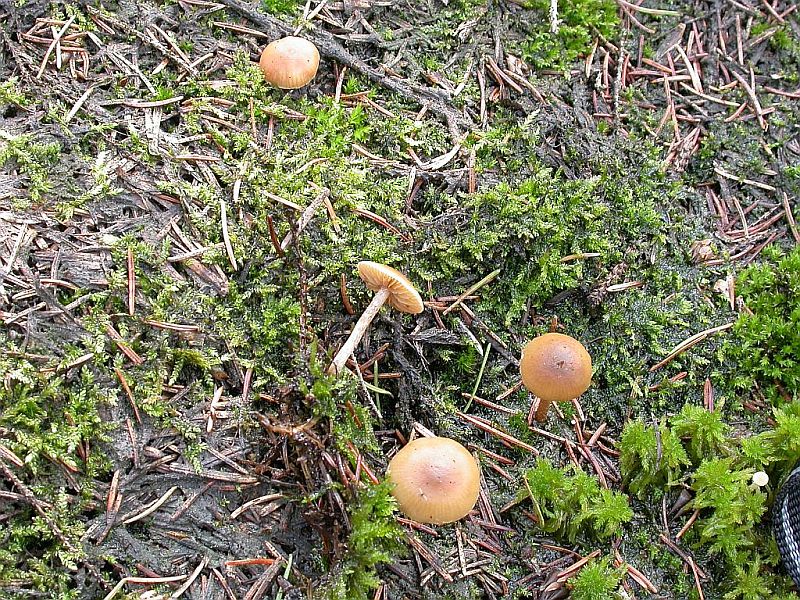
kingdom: Fungi
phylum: Basidiomycota
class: Agaricomycetes
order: Agaricales
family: Strophariaceae
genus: Hypholoma
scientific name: Hypholoma elongatum
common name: slank svovlhat
